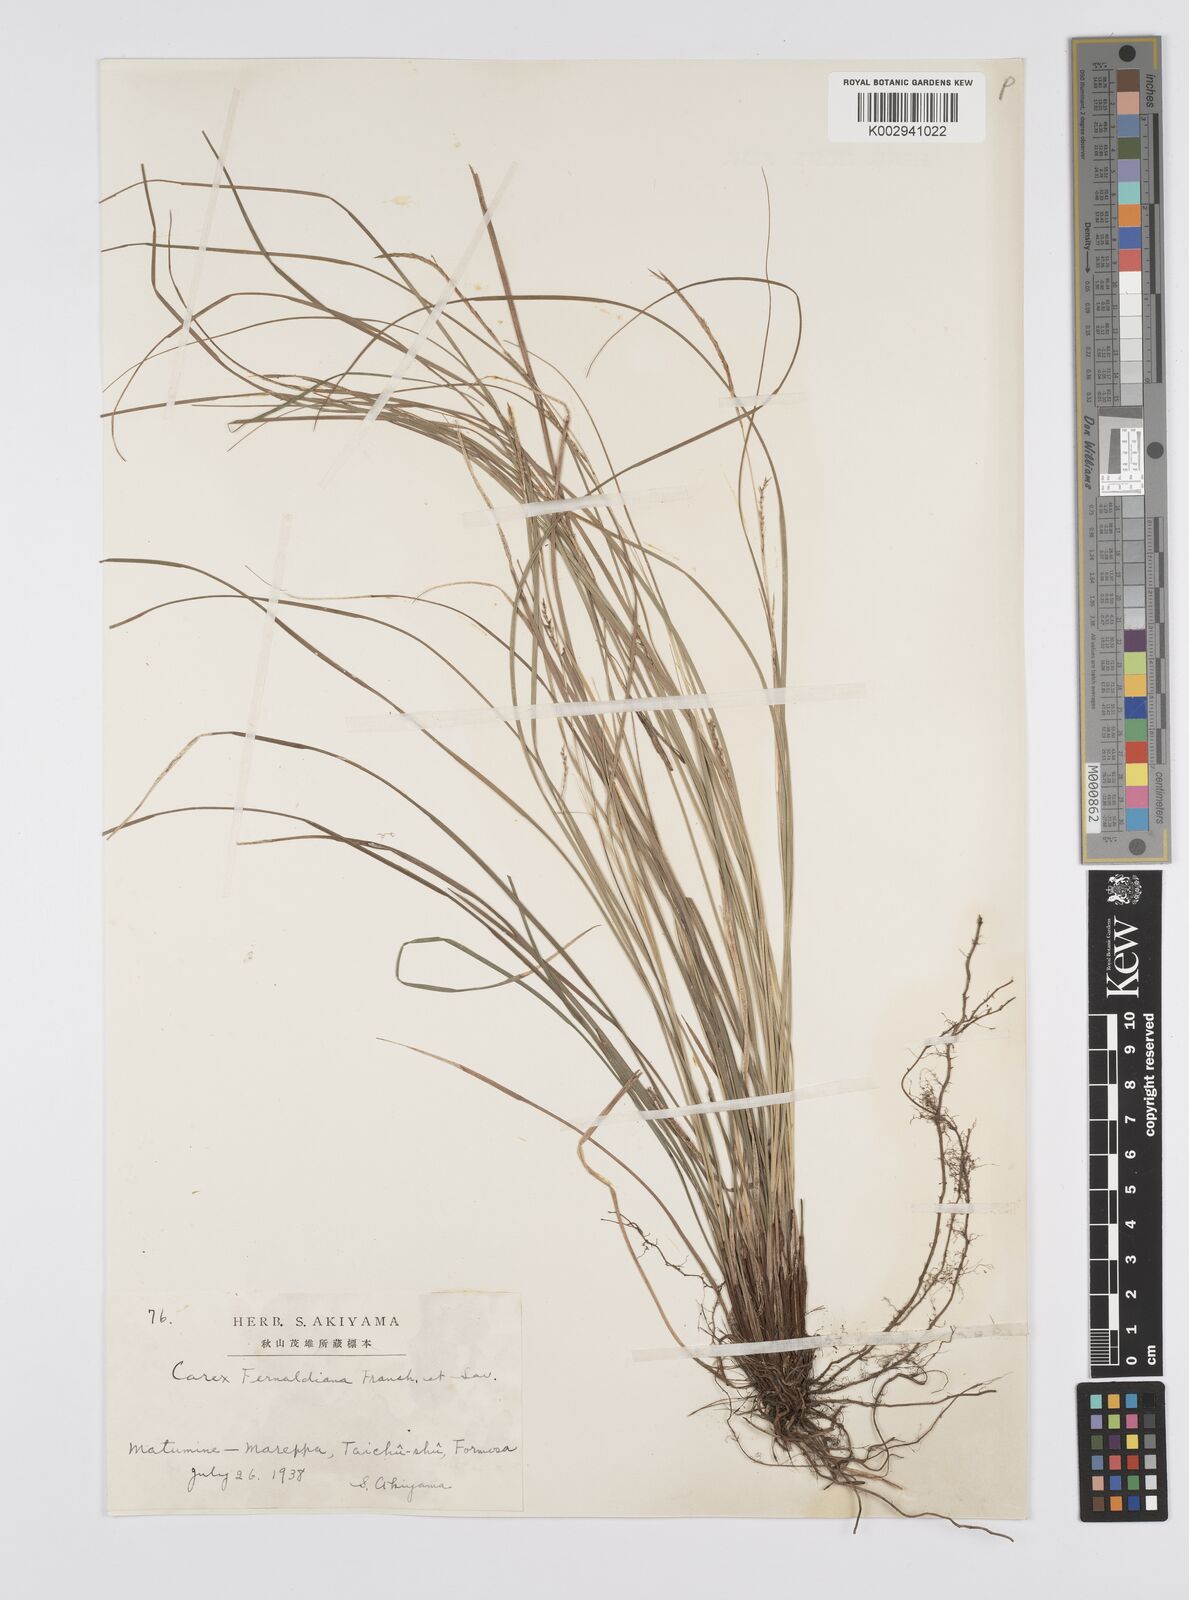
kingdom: Plantae
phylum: Tracheophyta
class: Liliopsida
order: Poales
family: Cyperaceae
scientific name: Cyperaceae
